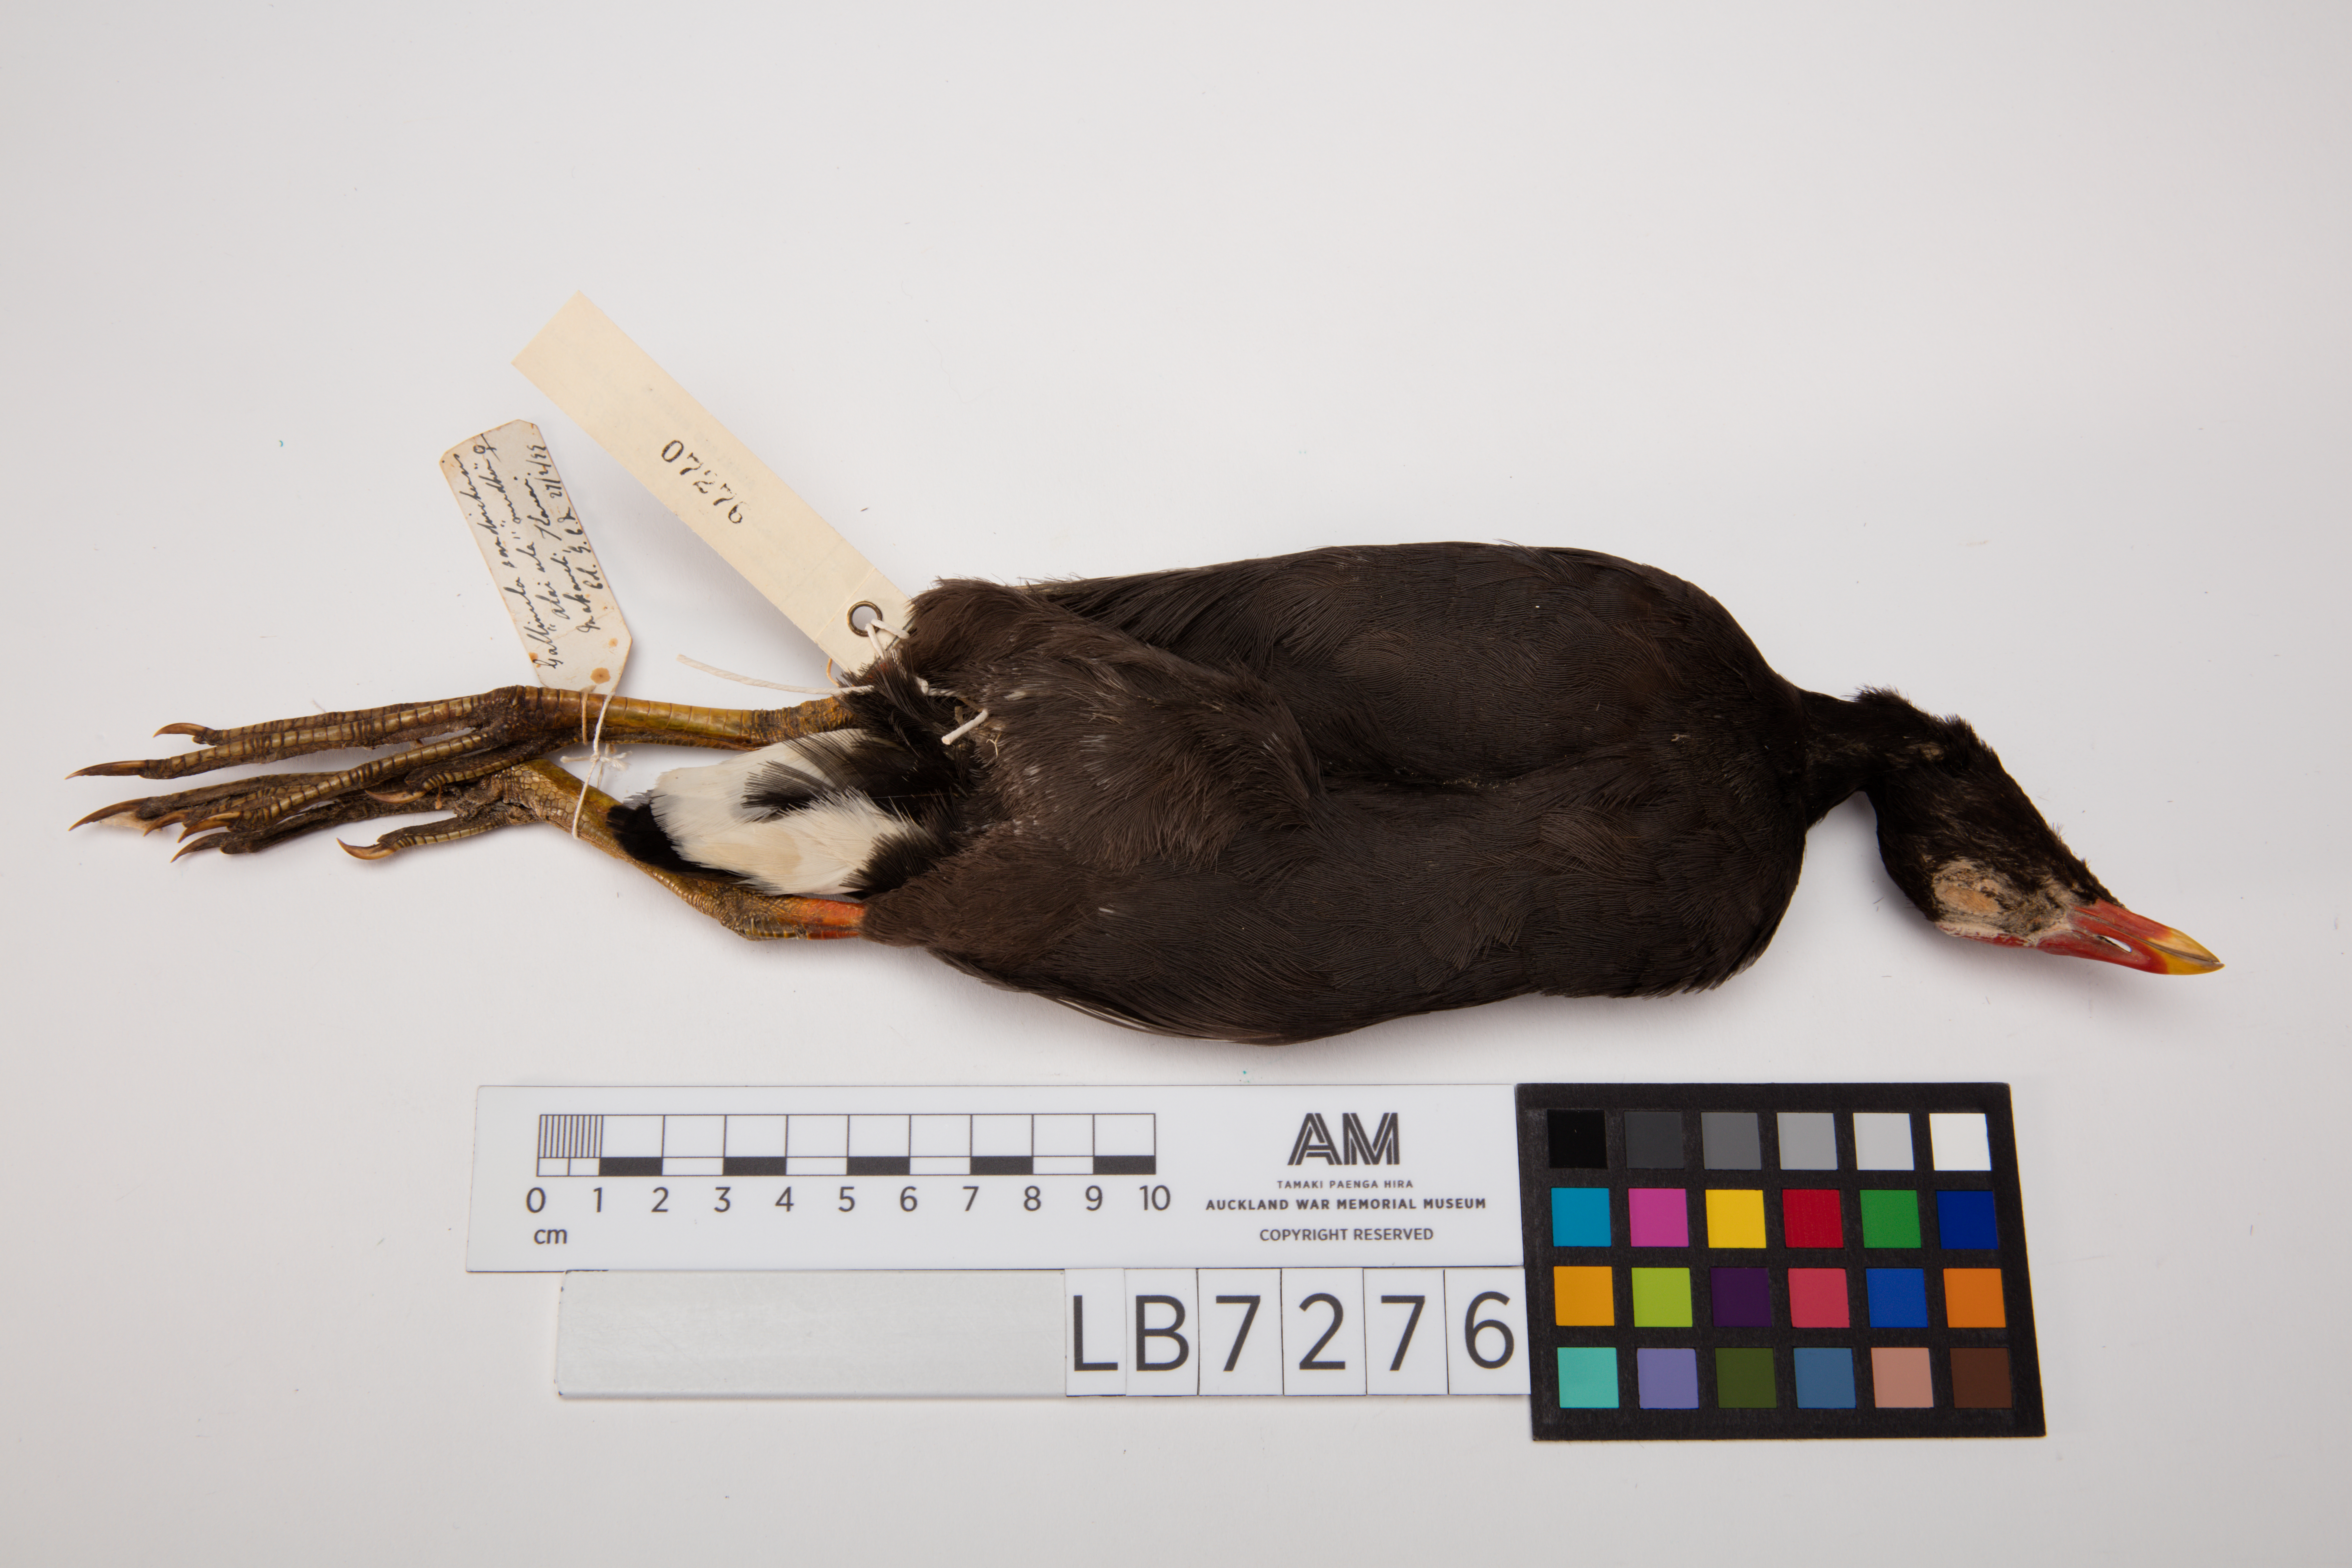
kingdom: Animalia
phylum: Chordata
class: Aves
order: Gruiformes
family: Rallidae
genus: Gallinula
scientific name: Gallinula chloropus
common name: Common moorhen
